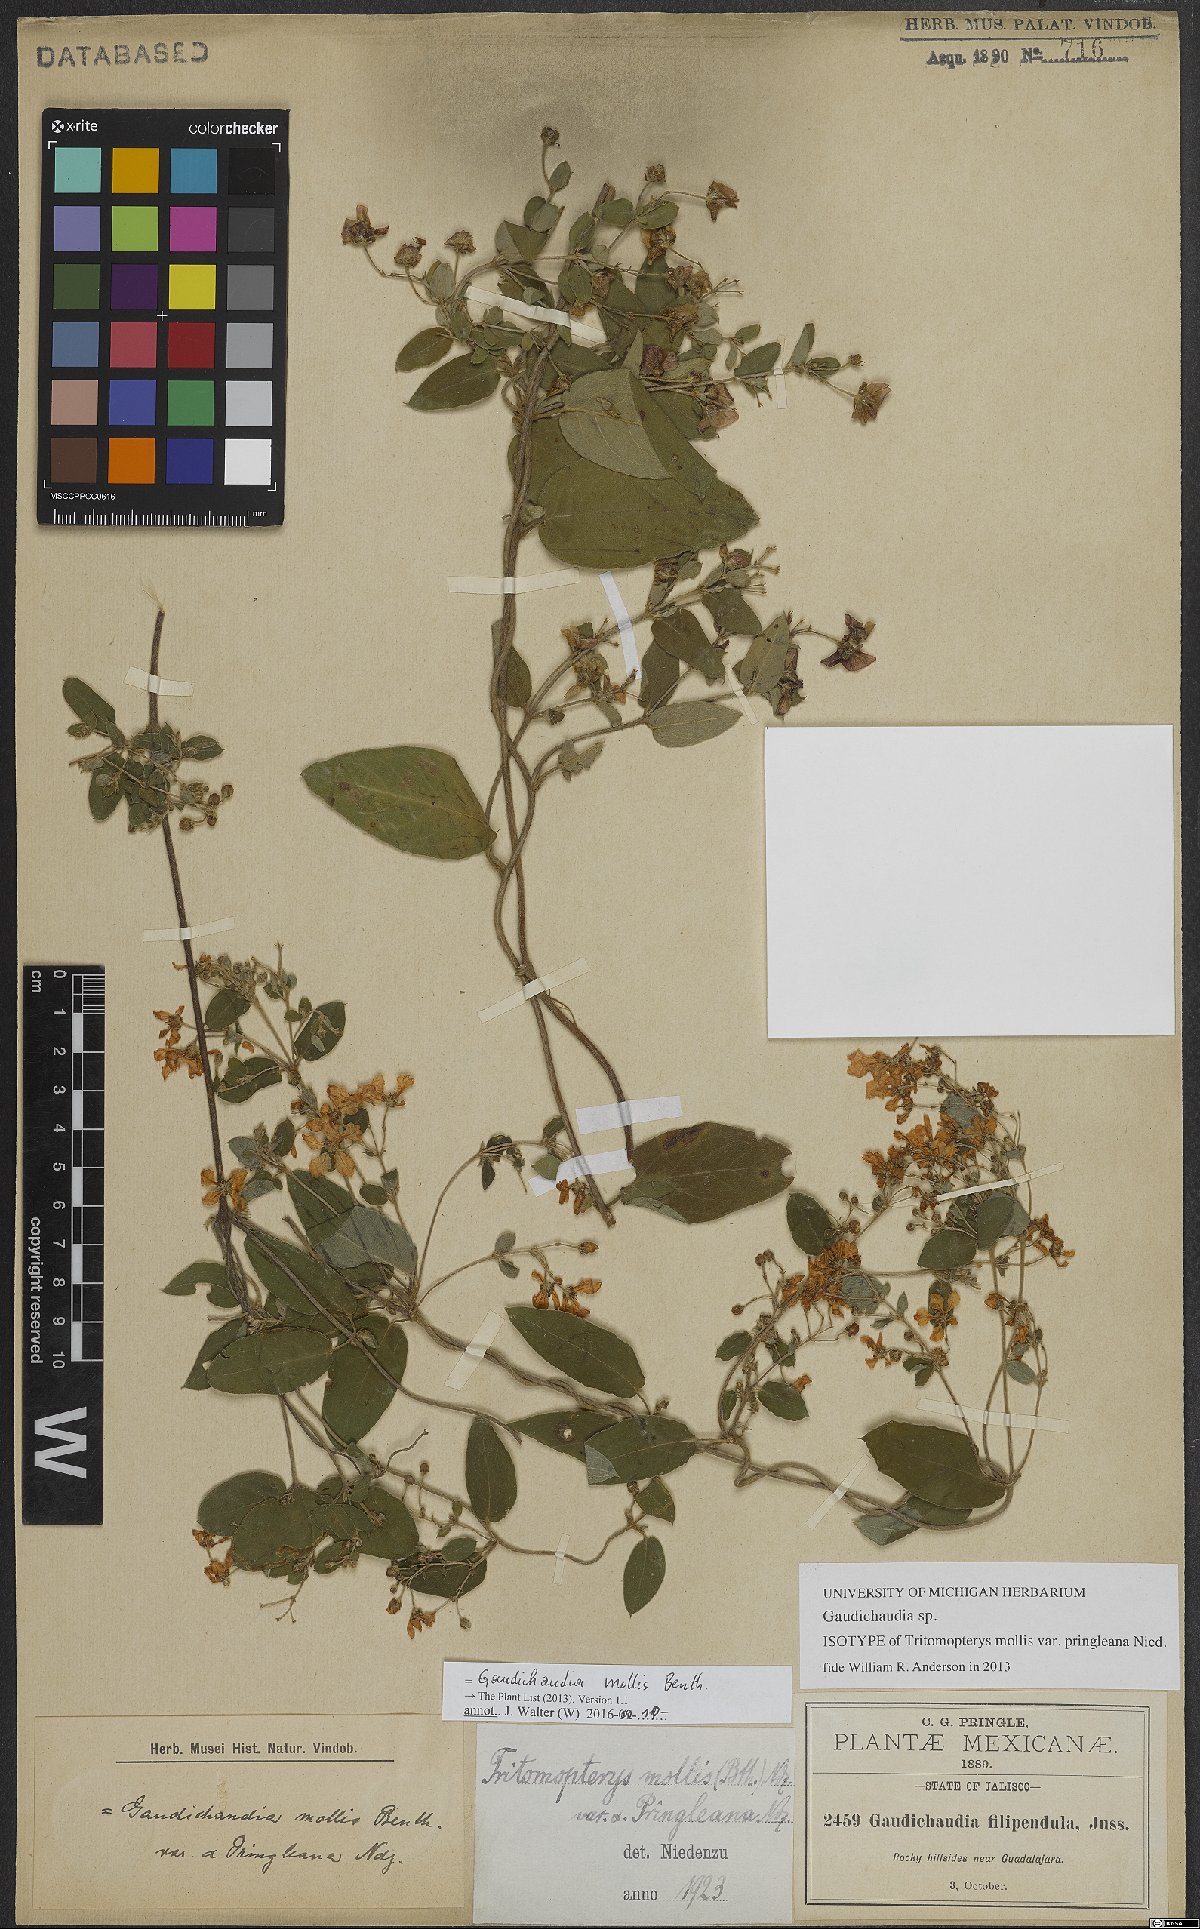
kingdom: Plantae
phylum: Tracheophyta
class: Magnoliopsida
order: Malpighiales
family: Malpighiaceae
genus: Gaudichaudia
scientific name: Gaudichaudia mollis
